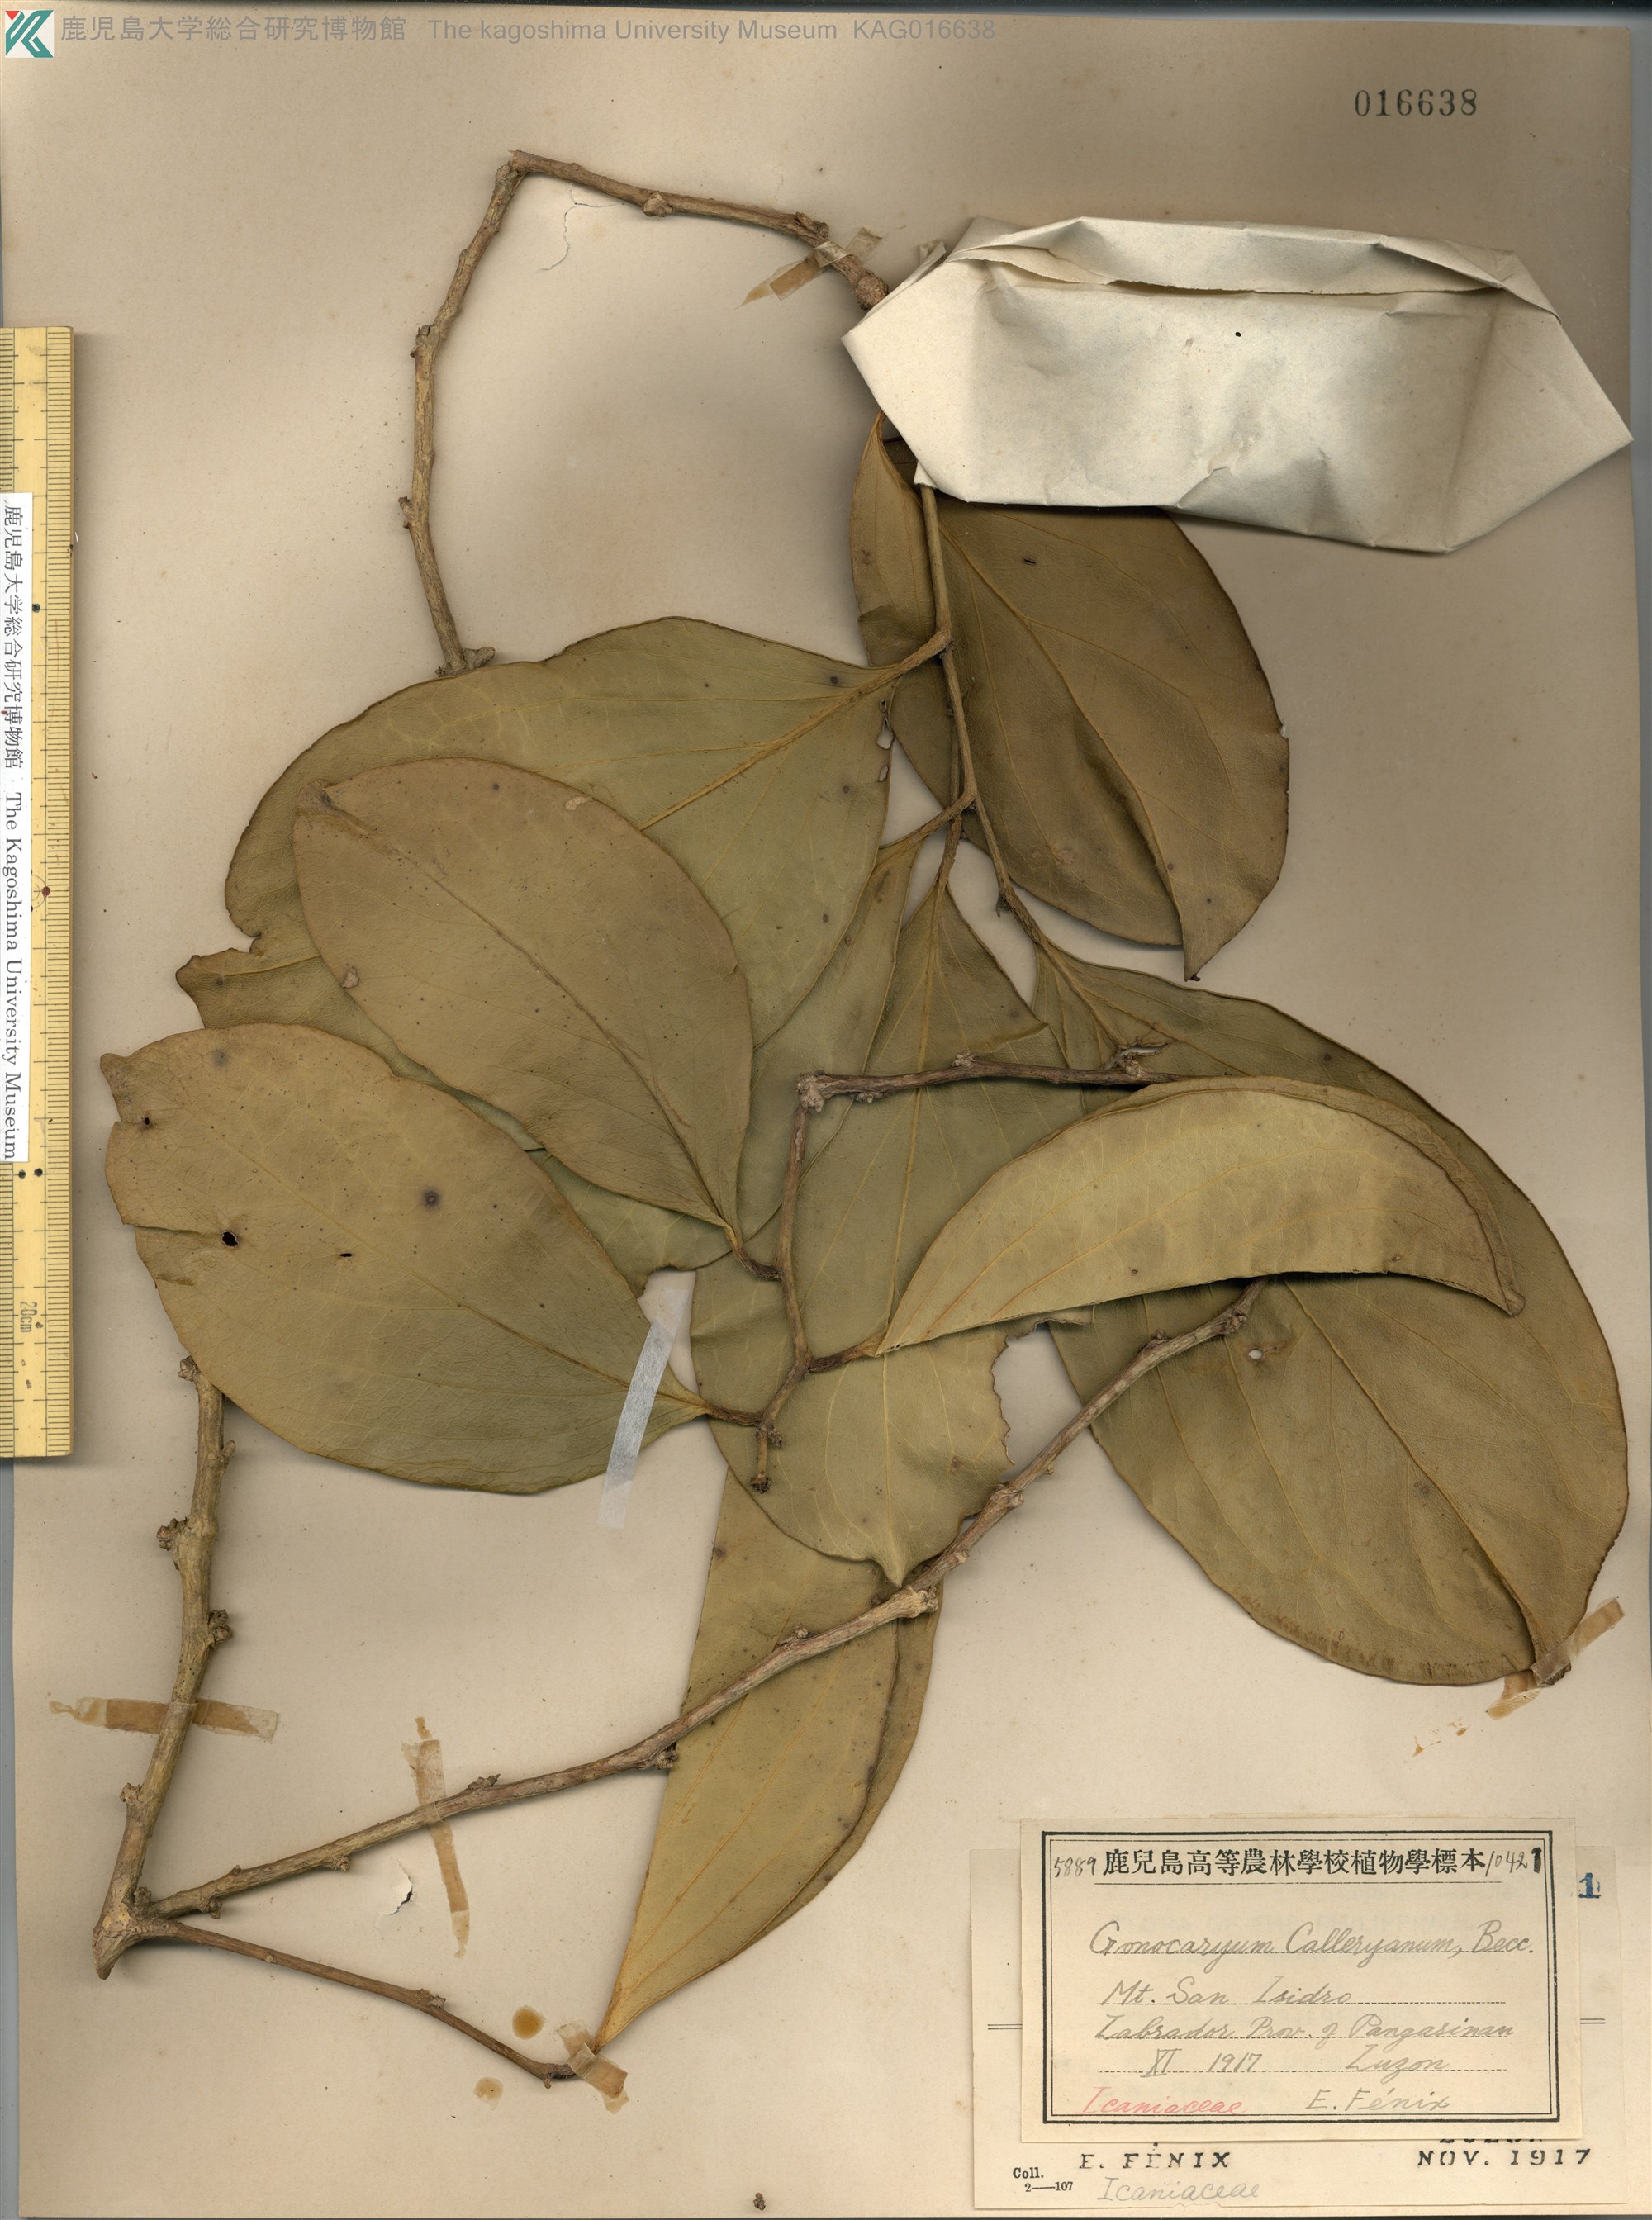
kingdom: Plantae
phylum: Tracheophyta
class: Magnoliopsida
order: Cardiopteridales
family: Cardiopteridaceae
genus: Gonocaryum
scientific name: Gonocaryum calleryanum
